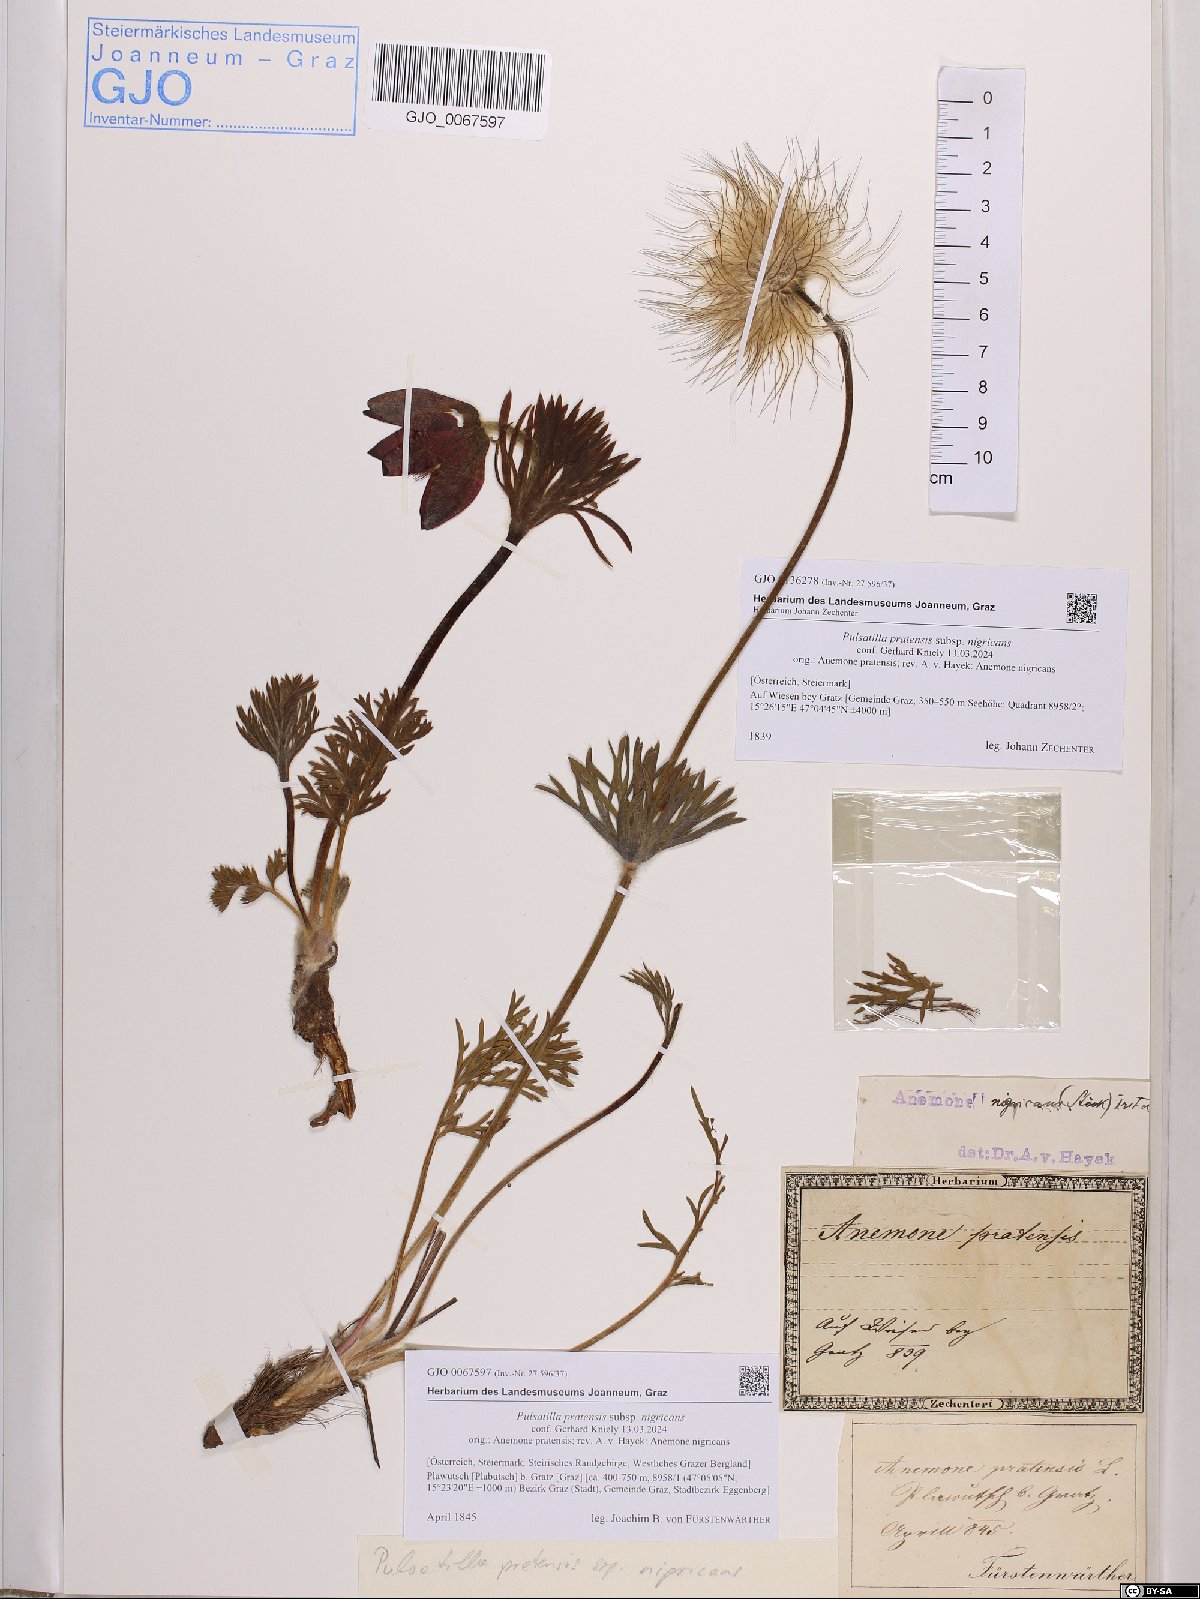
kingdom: Plantae
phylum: Tracheophyta
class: Magnoliopsida
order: Ranunculales
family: Ranunculaceae
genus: Pulsatilla
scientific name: Pulsatilla pratensis
